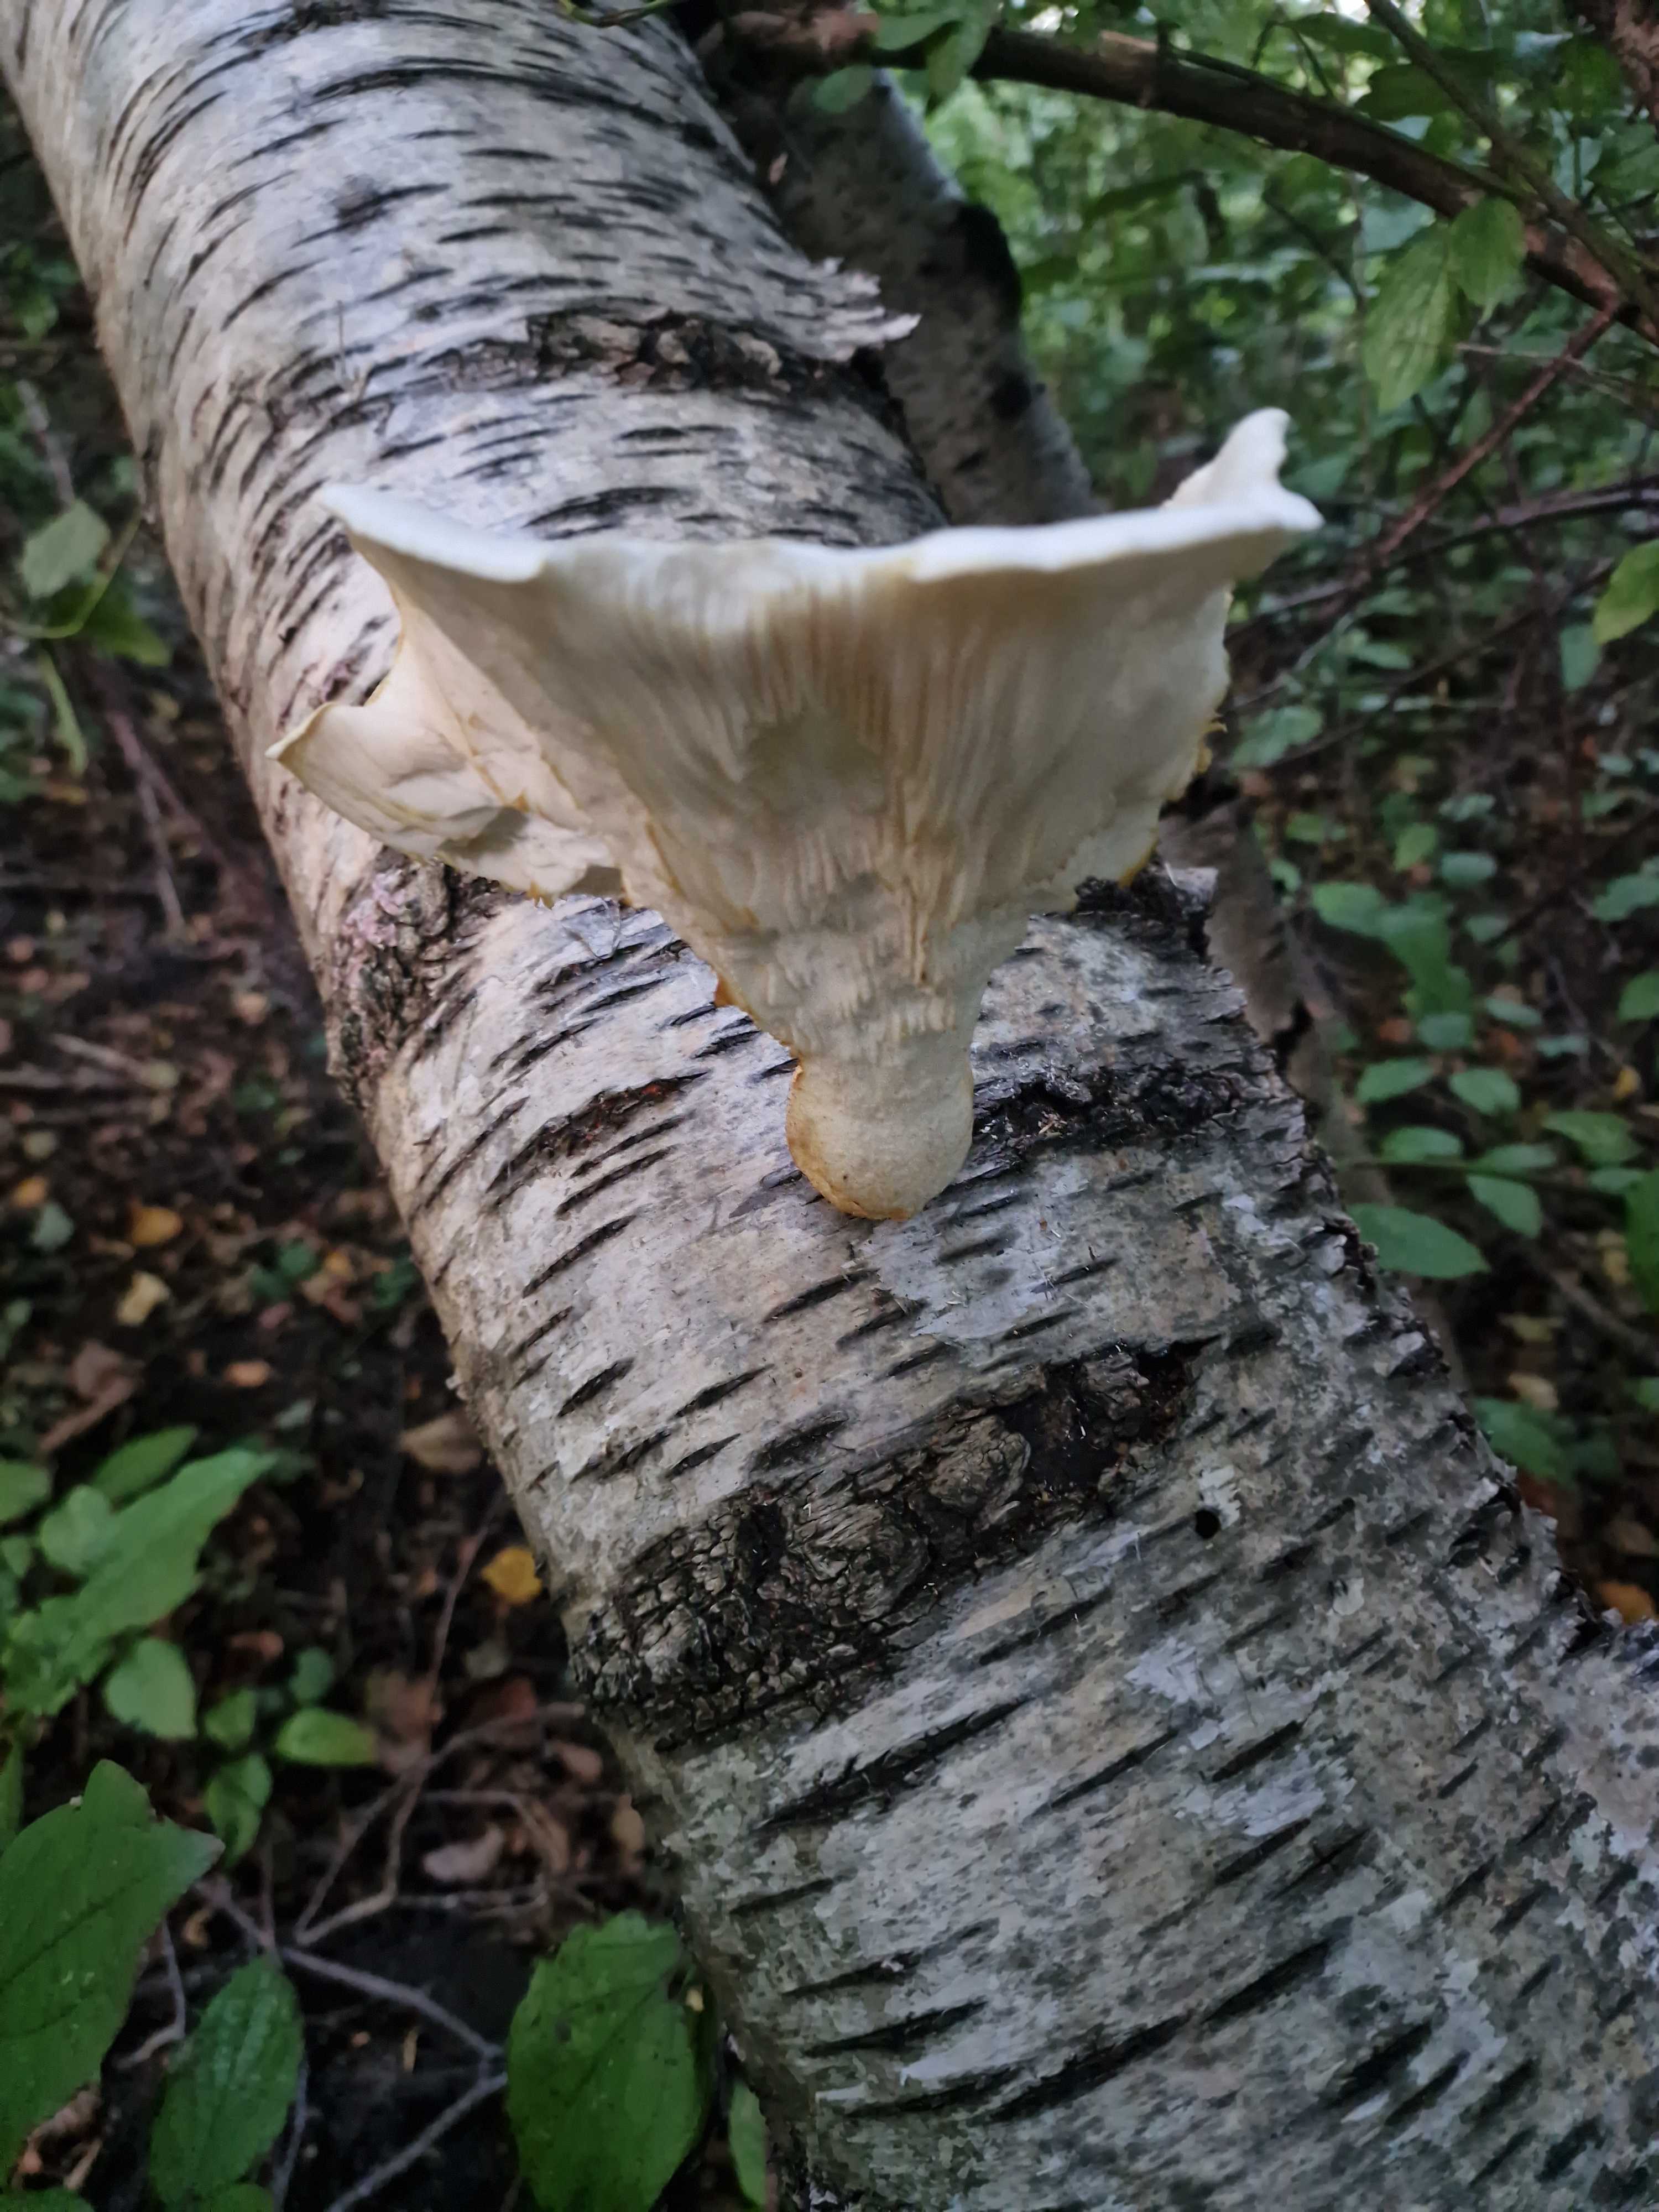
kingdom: Fungi
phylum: Basidiomycota
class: Agaricomycetes
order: Agaricales
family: Pleurotaceae
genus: Pleurotus
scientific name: Pleurotus dryinus
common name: korkagtig østershat
